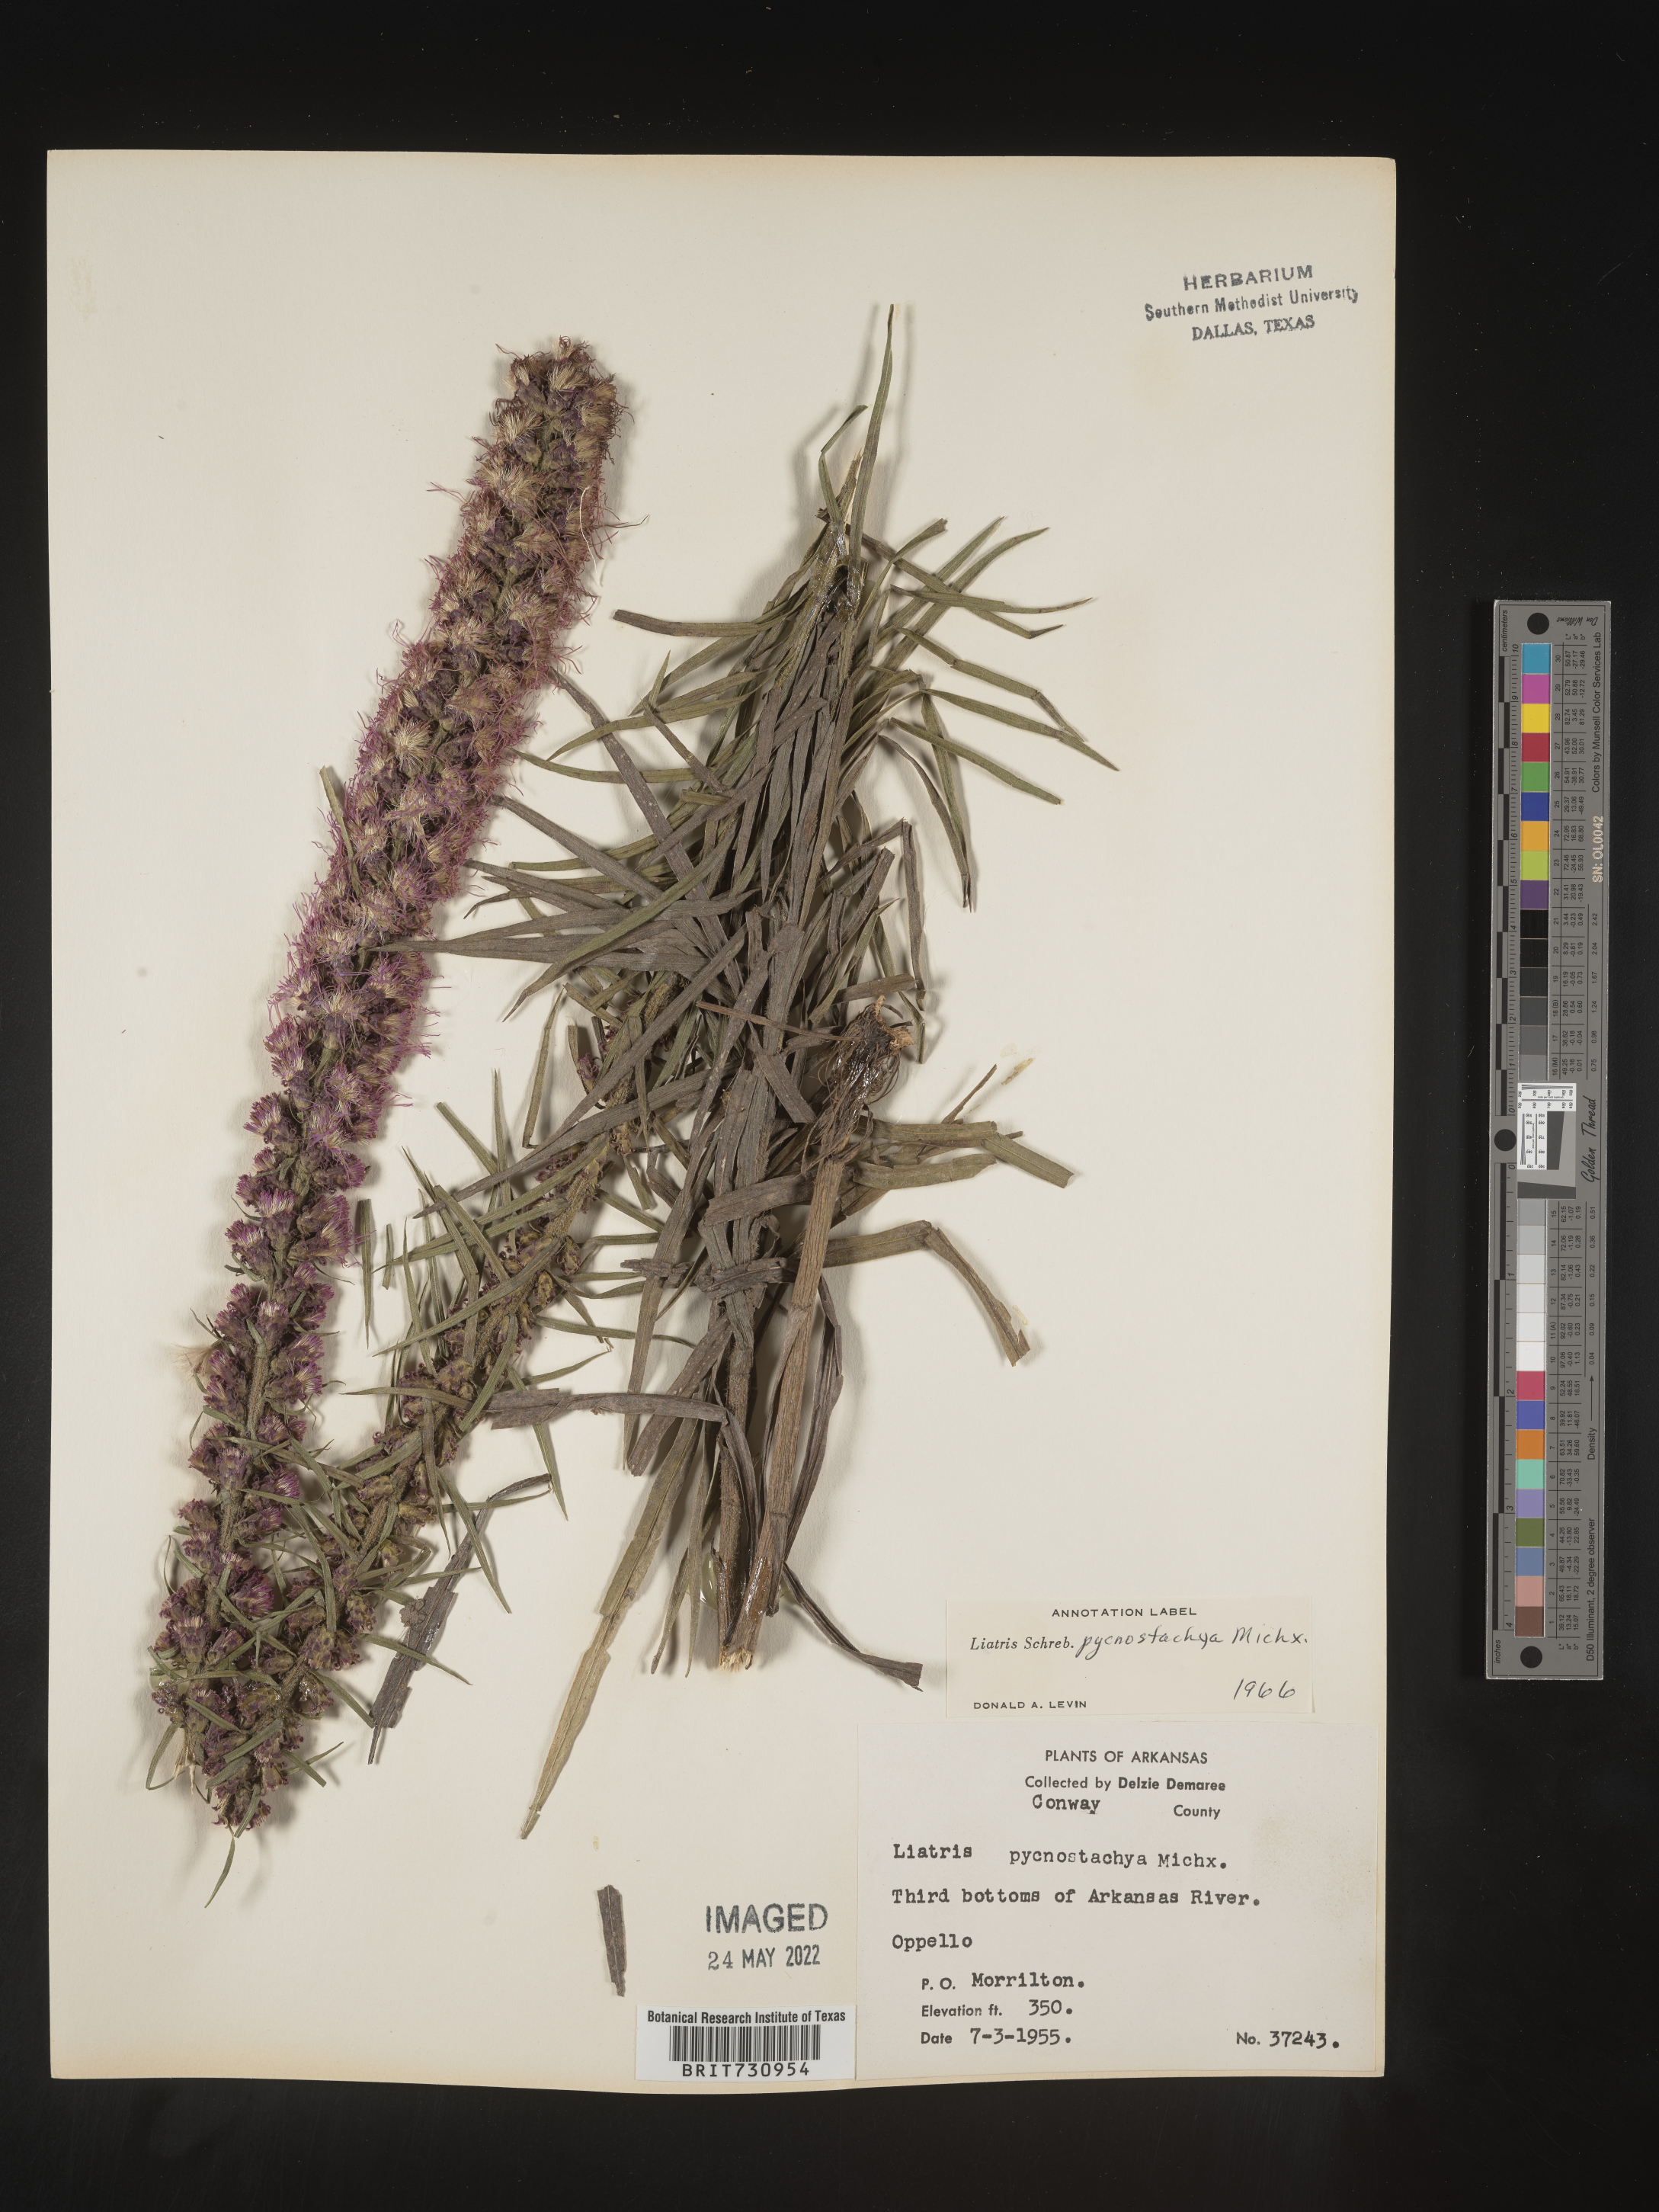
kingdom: Plantae
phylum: Tracheophyta
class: Magnoliopsida
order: Asterales
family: Asteraceae
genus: Liatris
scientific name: Liatris pycnostachya
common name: Cattail gayfeather
